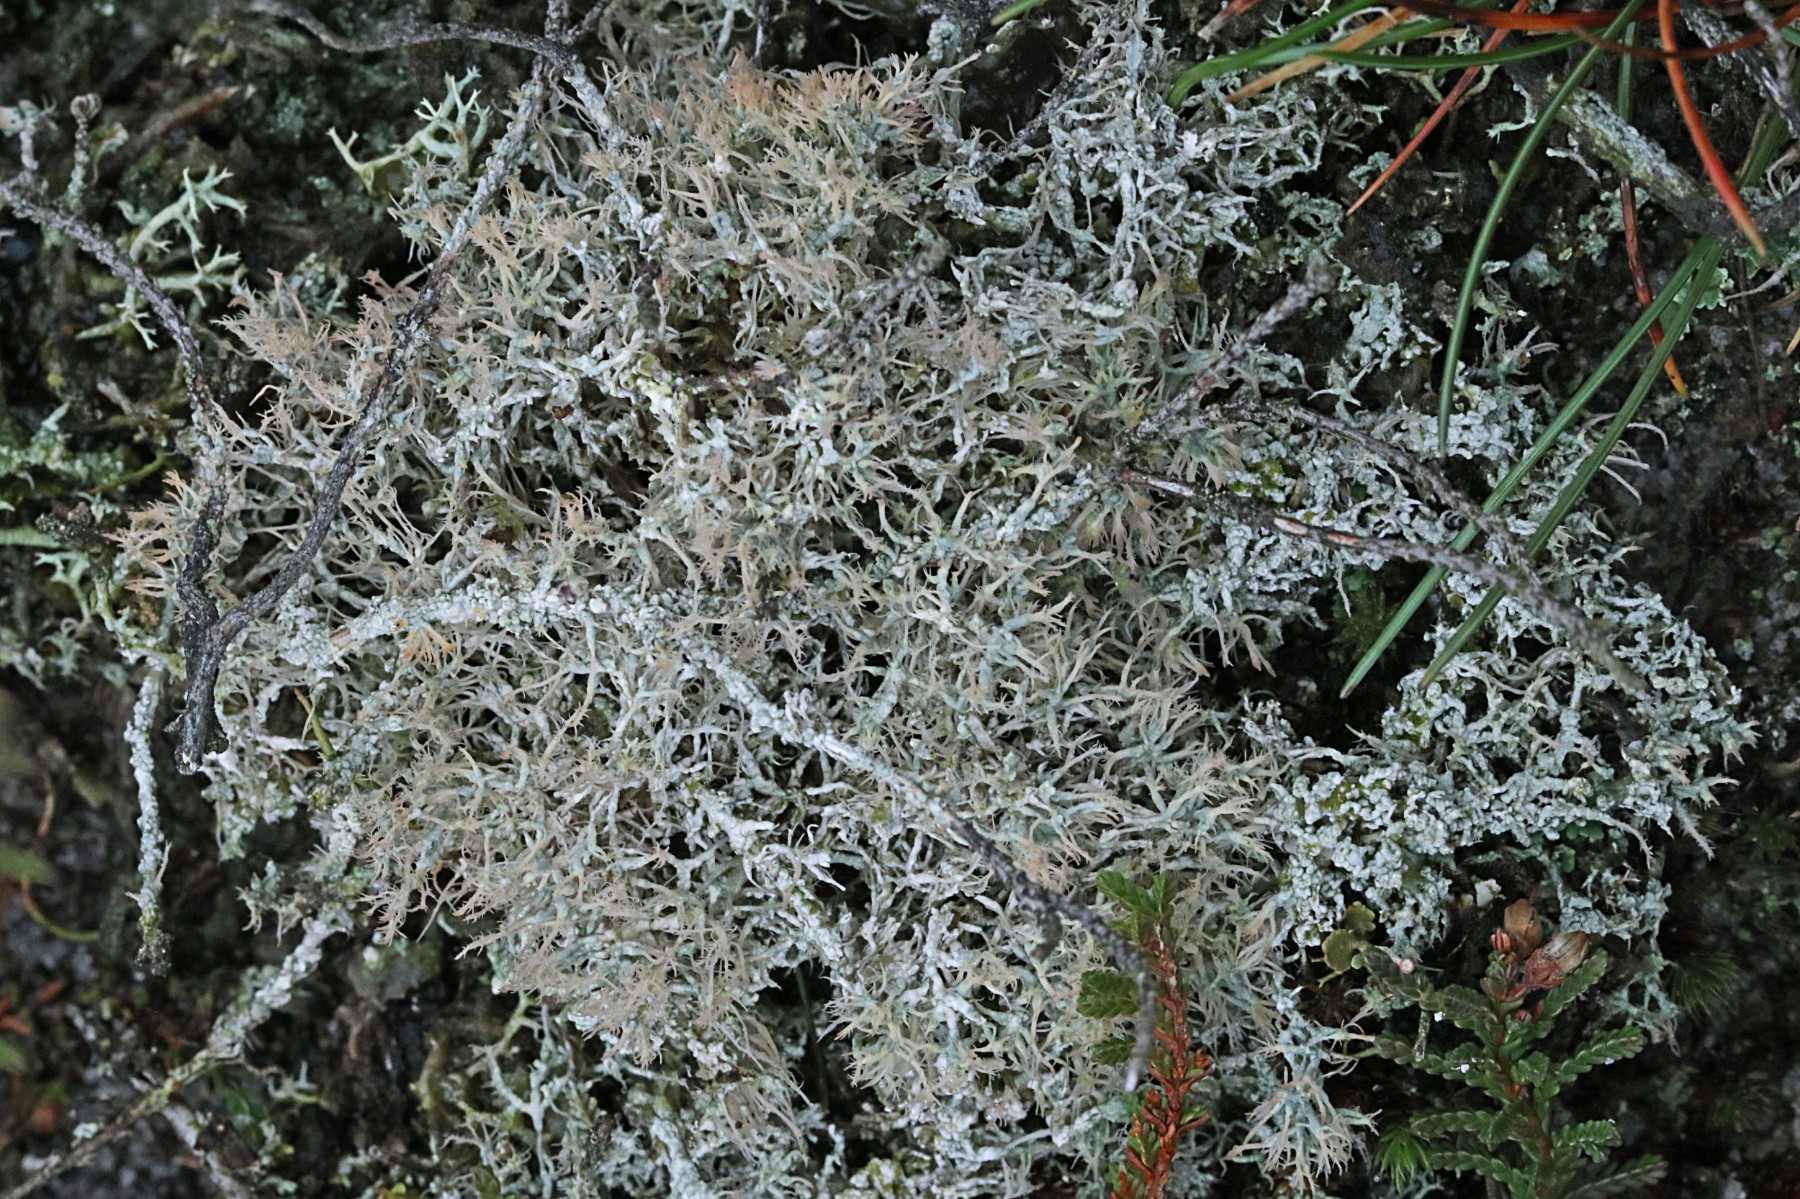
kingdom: Fungi
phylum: Ascomycota
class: Lecanoromycetes
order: Pertusariales
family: Ochrolechiaceae
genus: Ochrolechia
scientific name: Ochrolechia frigida
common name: fjeld-blegskivelav
